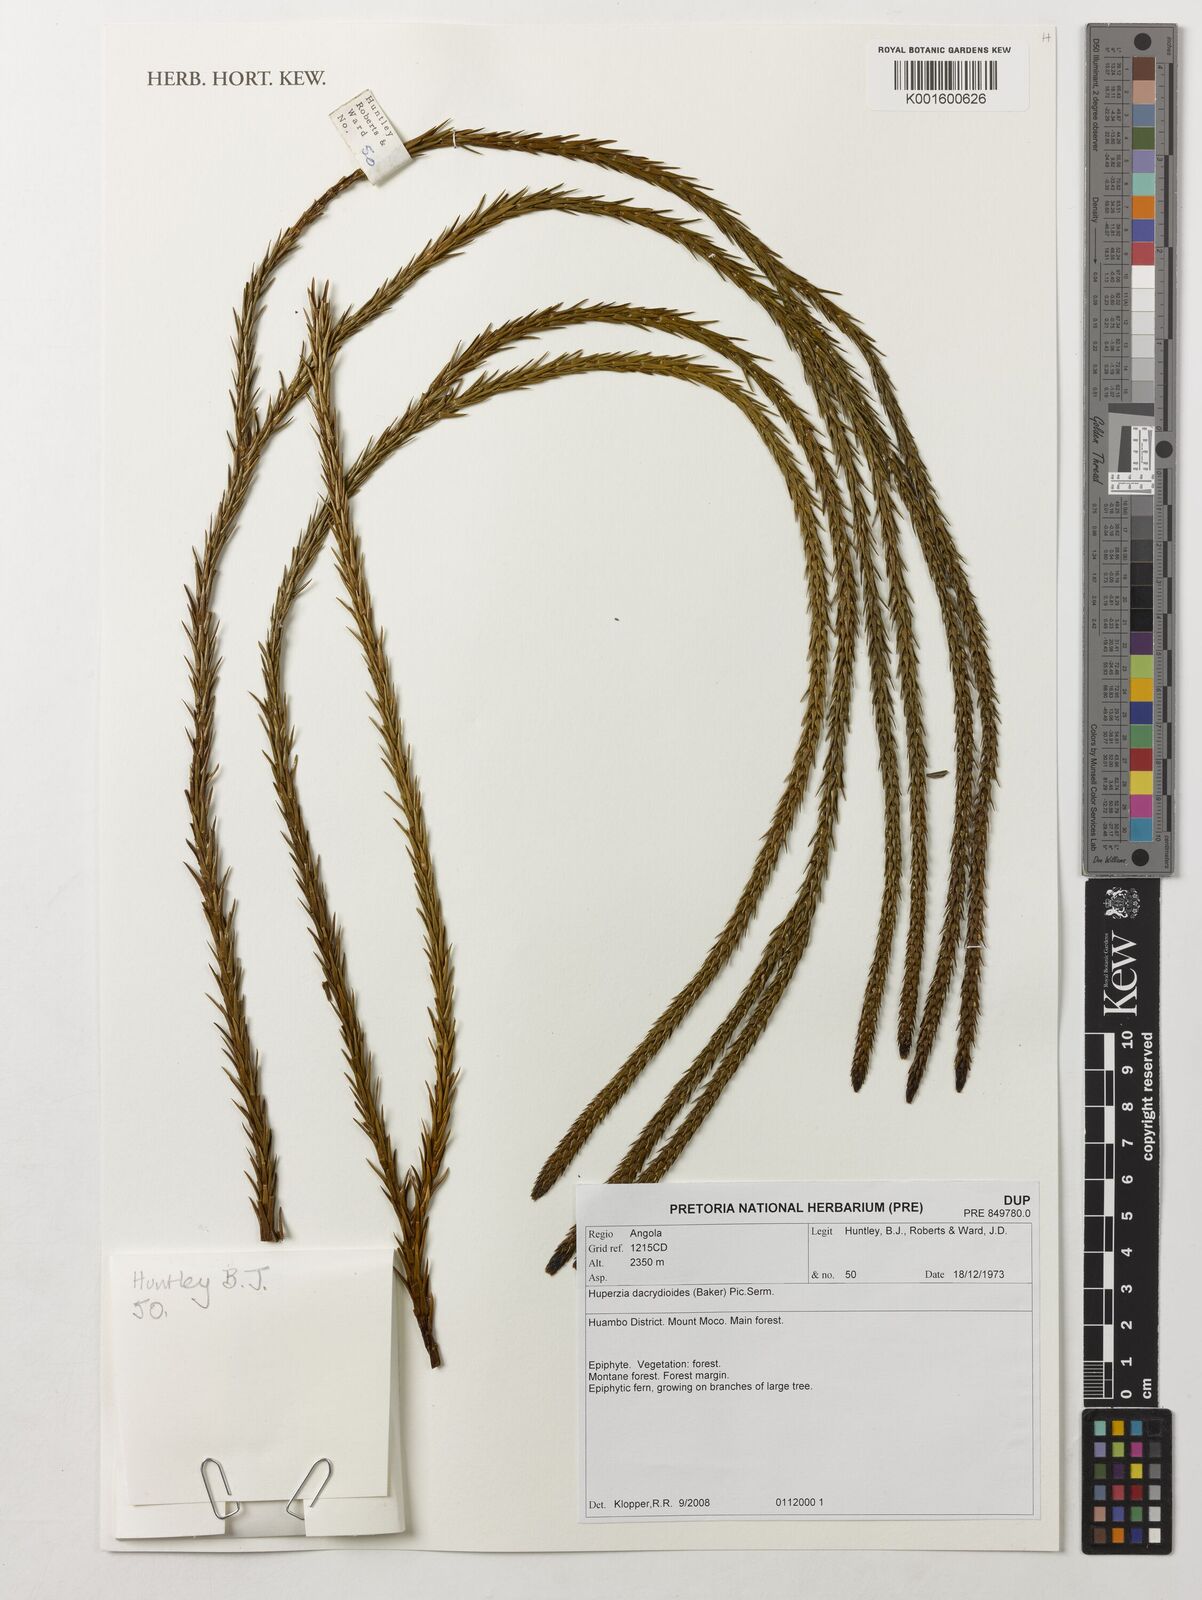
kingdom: Plantae
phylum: Tracheophyta
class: Lycopodiopsida
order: Lycopodiales
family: Lycopodiaceae
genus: Phlegmariurus
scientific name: Phlegmariurus dacrydioides
